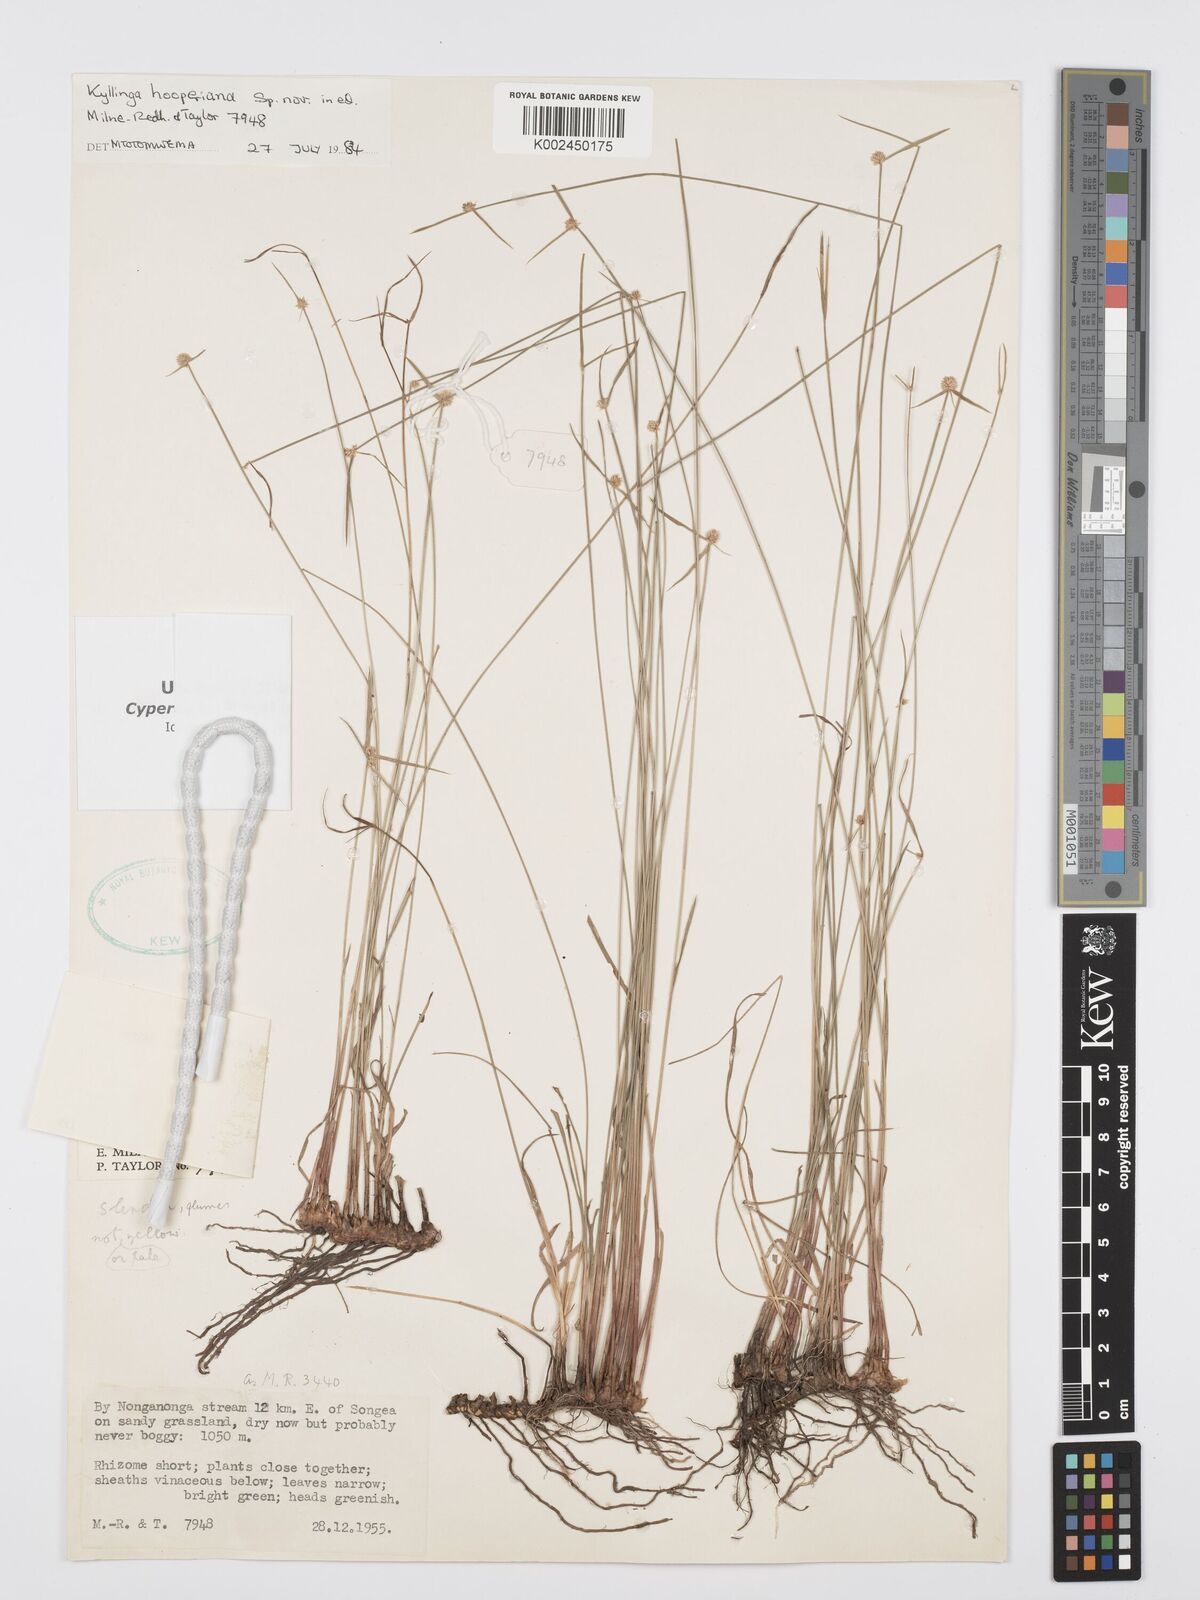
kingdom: Plantae
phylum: Tracheophyta
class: Liliopsida
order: Poales
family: Cyperaceae
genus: Cyperus
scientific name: Cyperus
